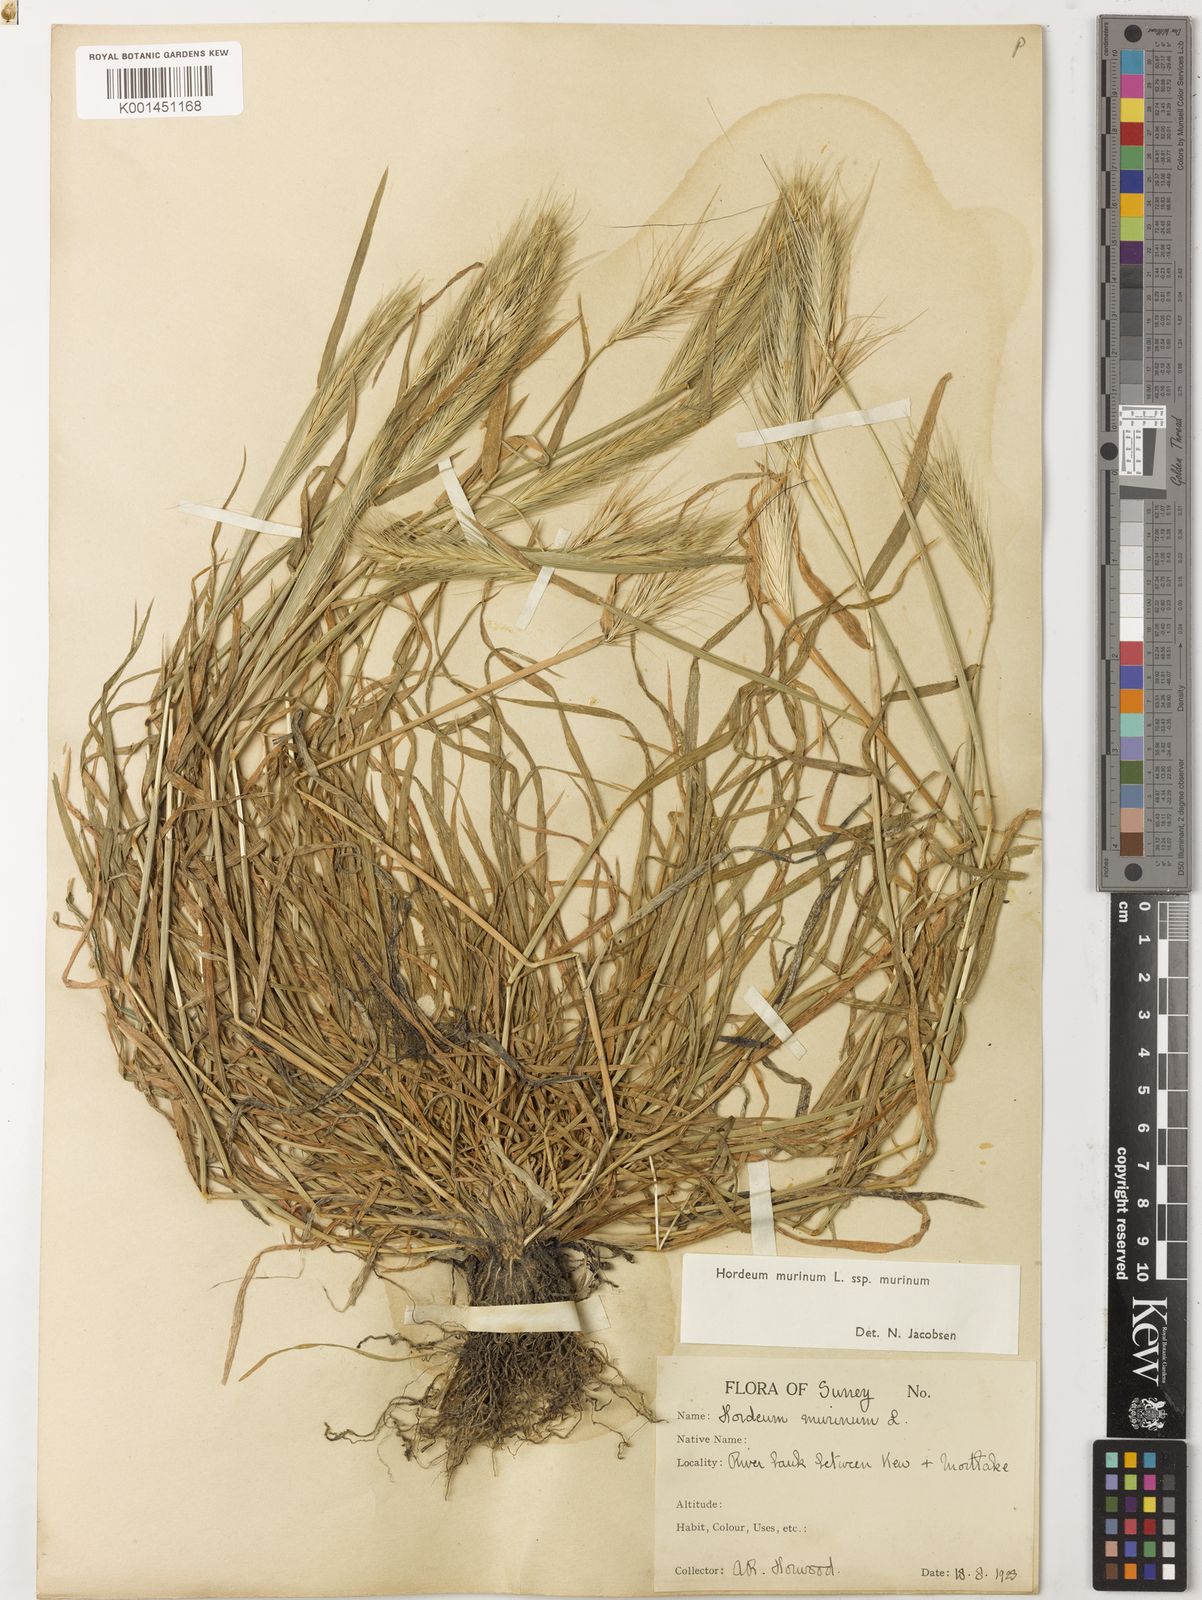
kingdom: Plantae
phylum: Tracheophyta
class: Liliopsida
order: Poales
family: Poaceae
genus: Hordeum
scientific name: Hordeum murinum
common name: Wall barley
